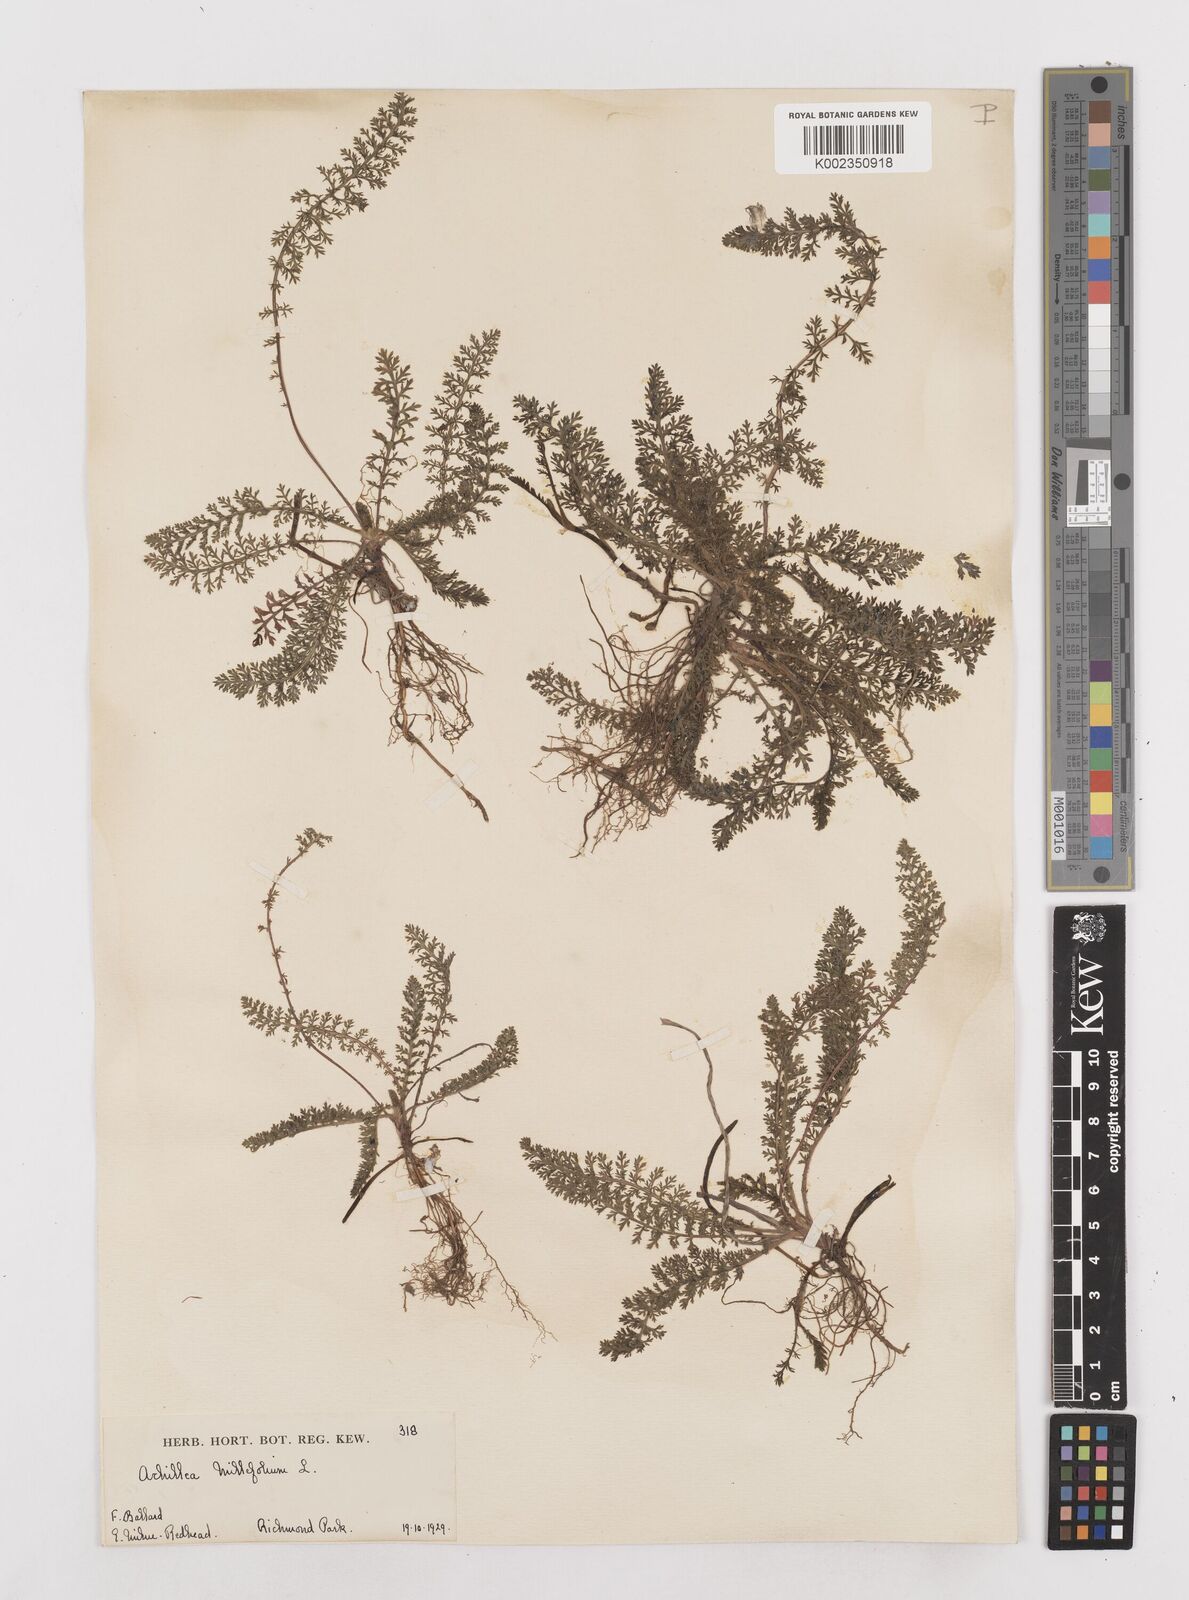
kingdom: Plantae
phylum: Tracheophyta
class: Magnoliopsida
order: Asterales
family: Asteraceae
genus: Achillea
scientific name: Achillea millefolium
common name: Yarrow
